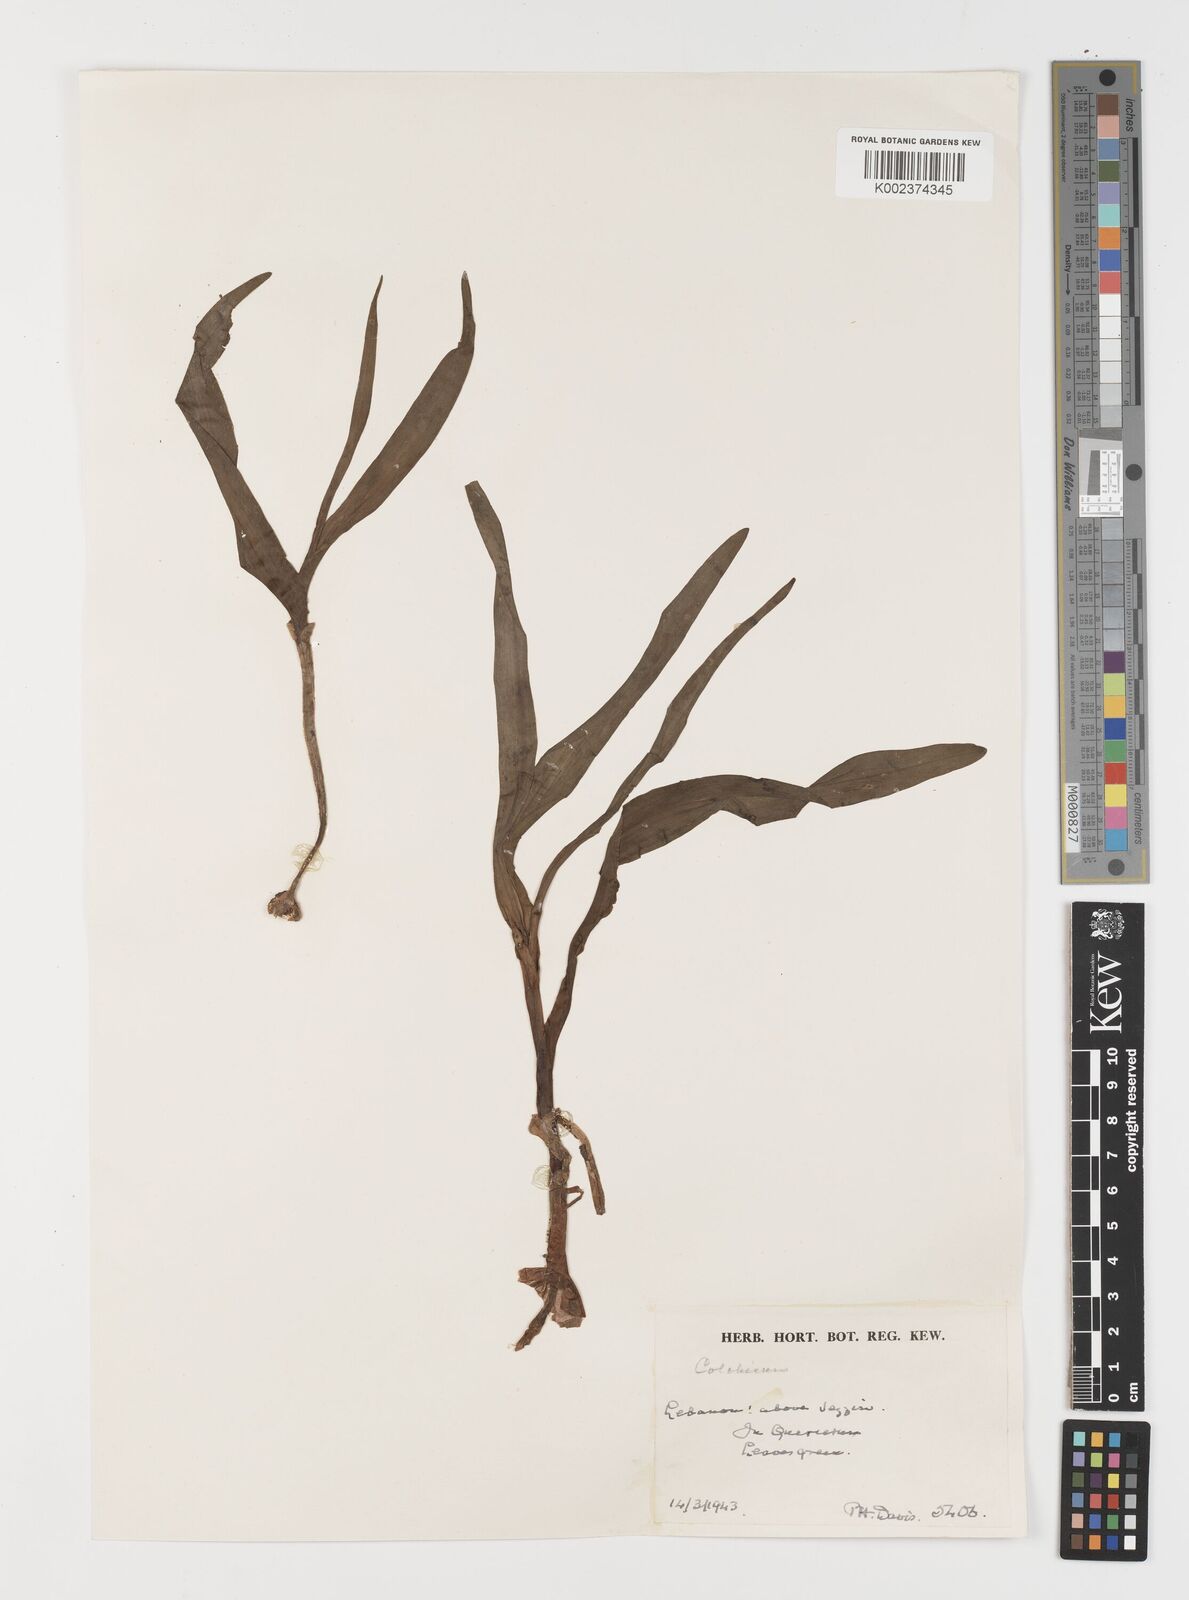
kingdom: Plantae
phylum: Tracheophyta
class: Liliopsida
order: Liliales
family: Colchicaceae
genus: Colchicum
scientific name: Colchicum
